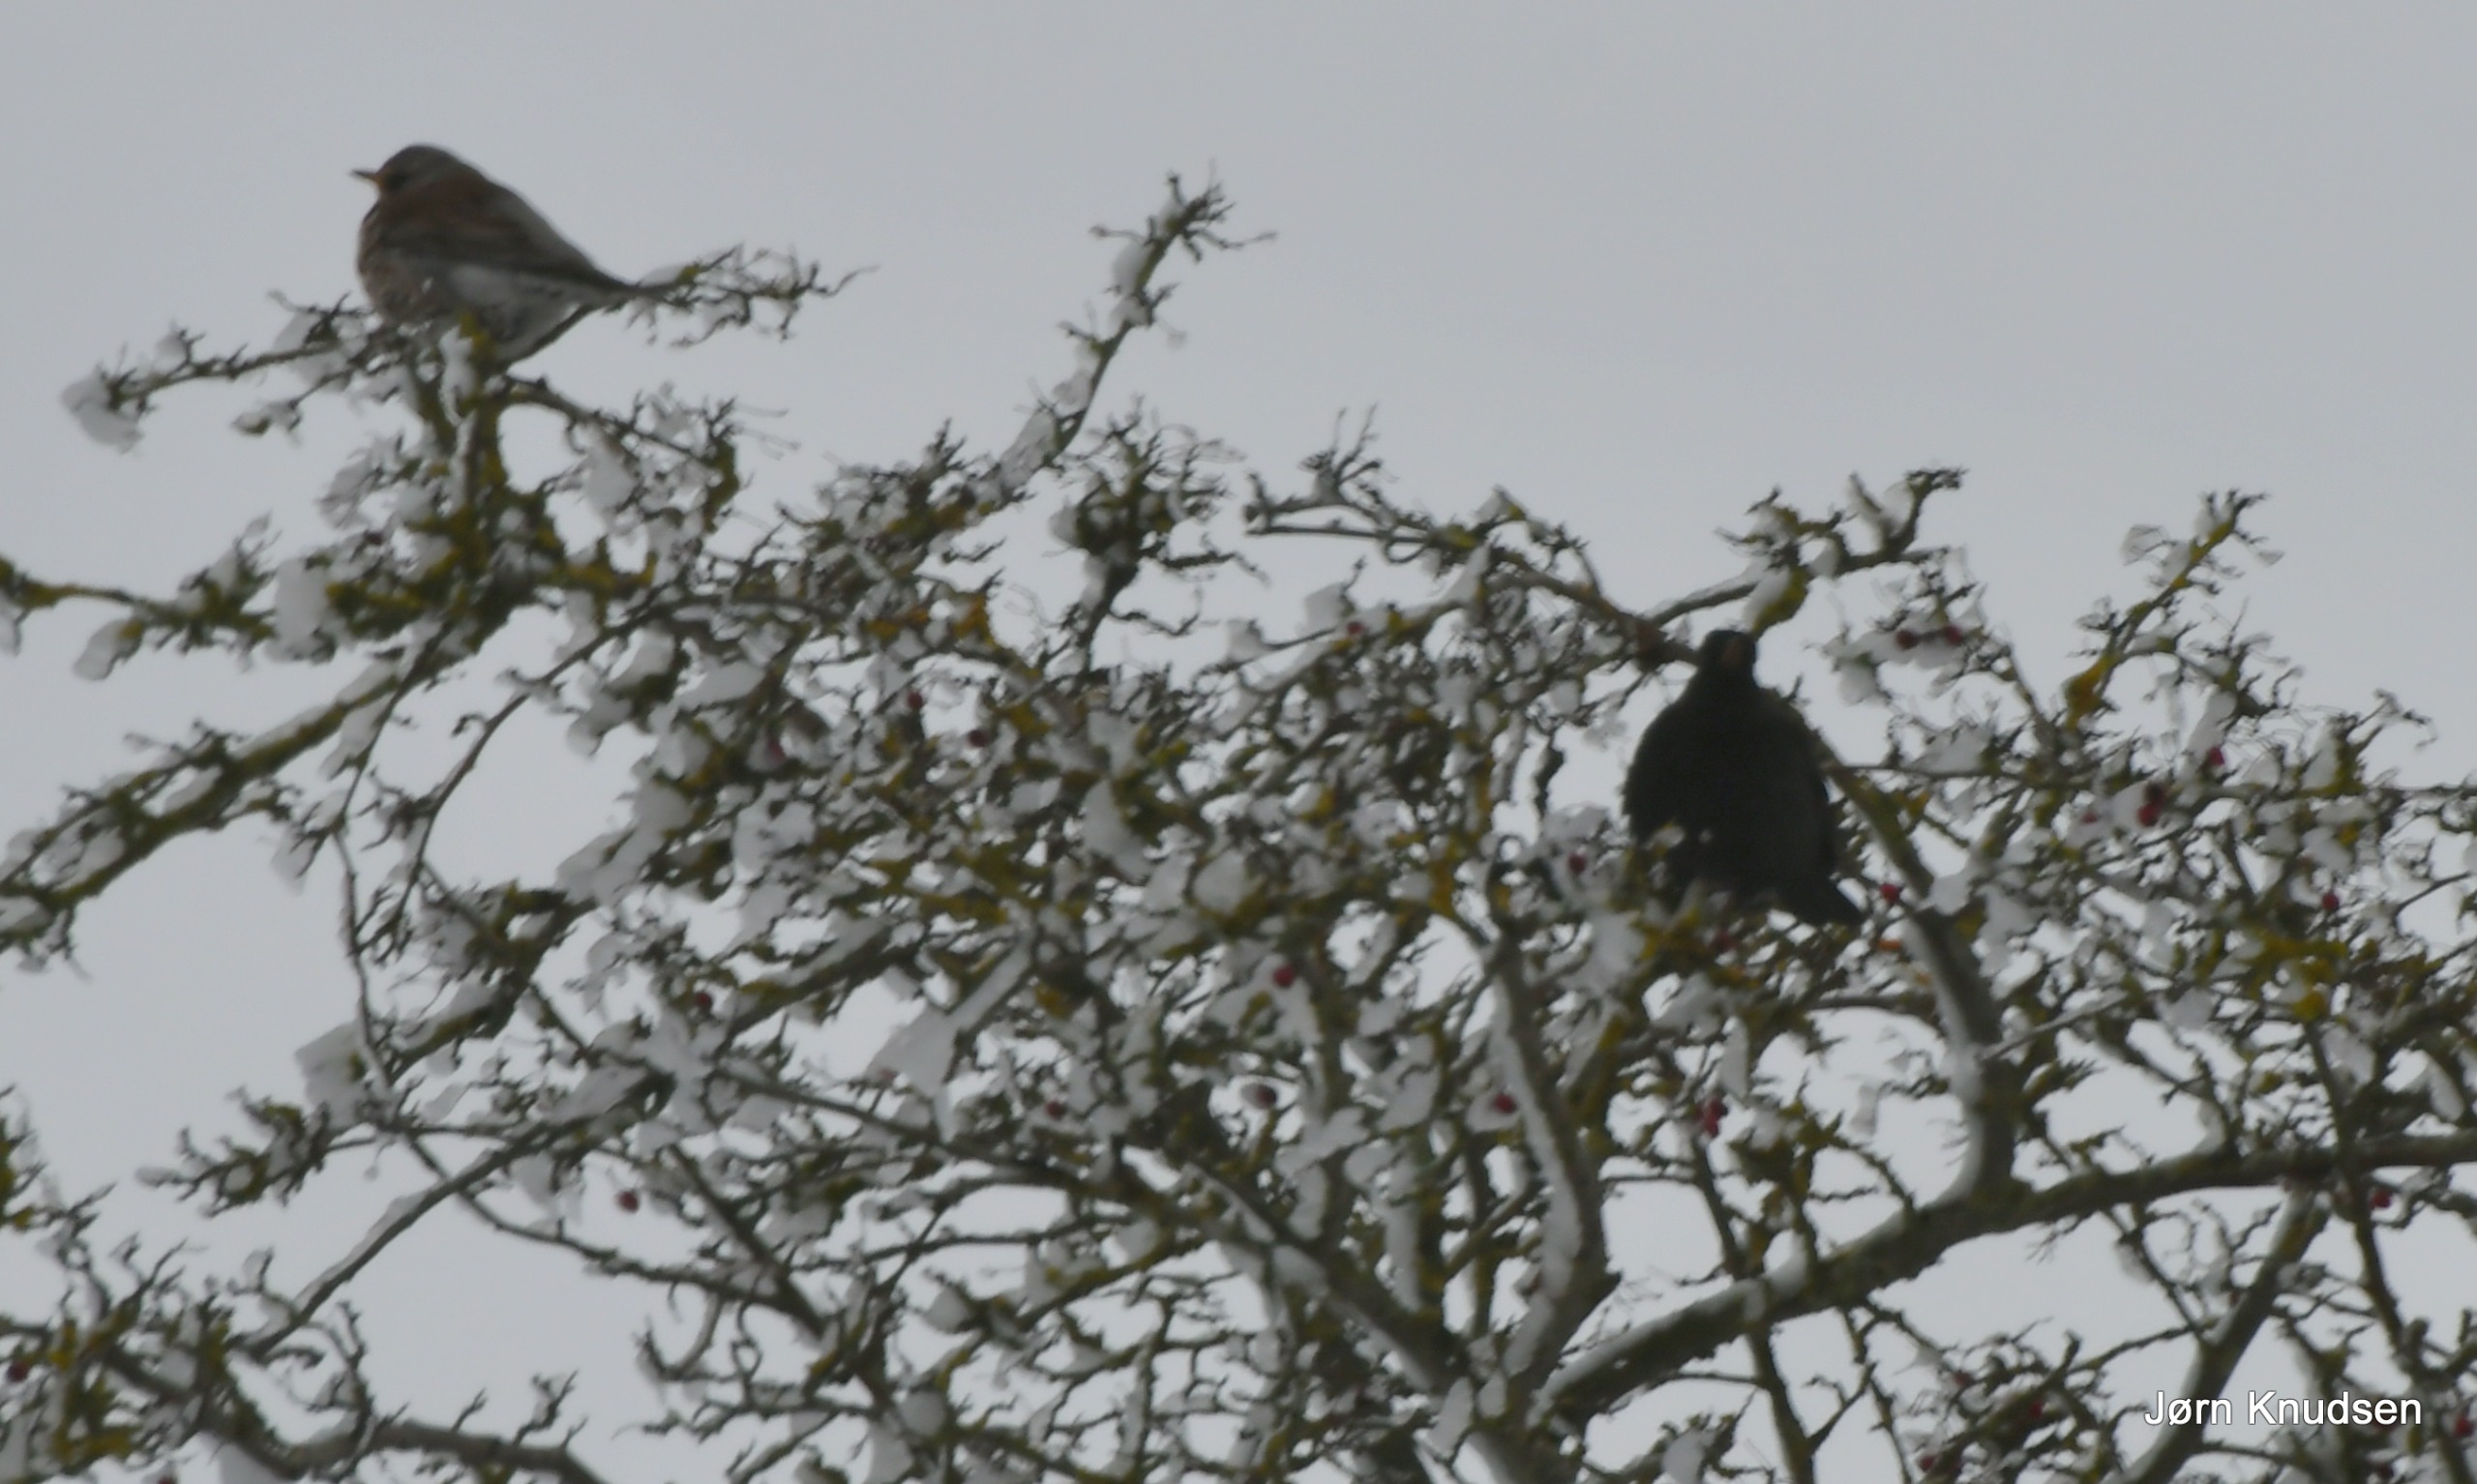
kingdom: Animalia
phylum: Chordata
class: Aves
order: Passeriformes
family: Turdidae
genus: Turdus
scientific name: Turdus pilaris
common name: Sjagger
